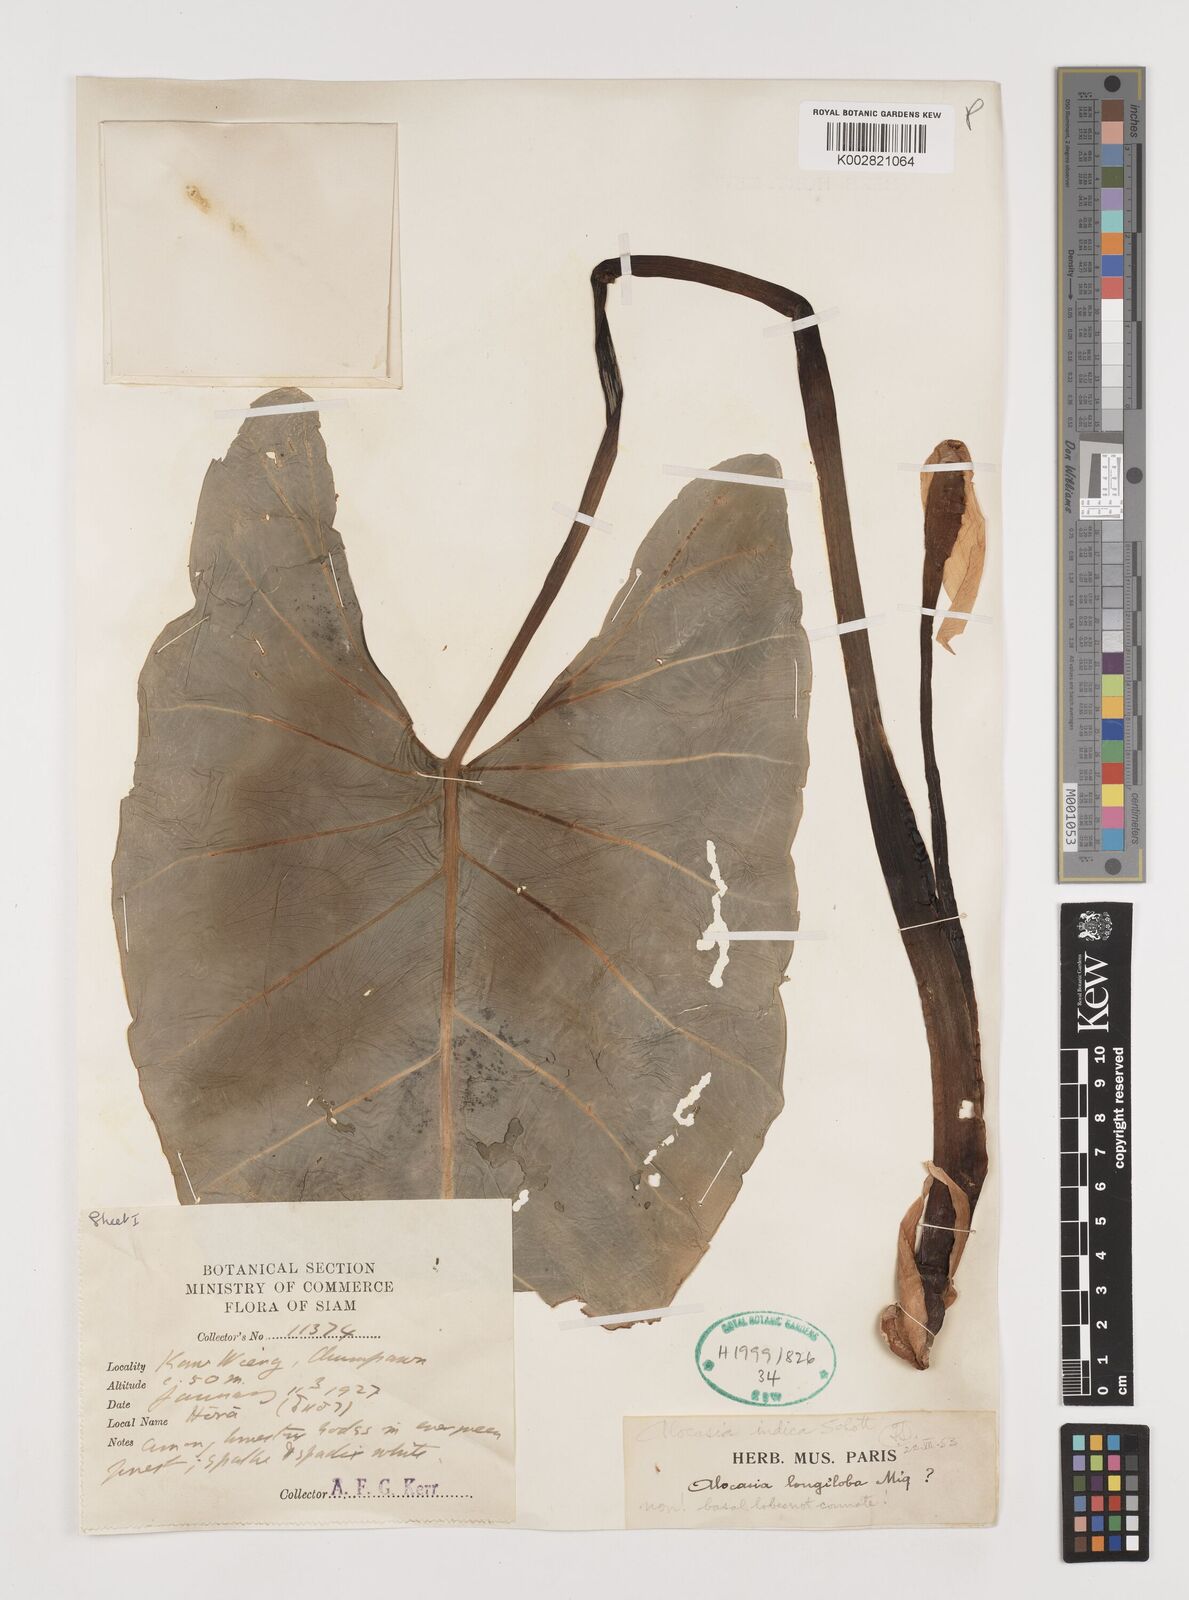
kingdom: Plantae
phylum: Tracheophyta
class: Liliopsida
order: Alismatales
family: Araceae
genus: Alocasia
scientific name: Alocasia macrorrhizos
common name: Giant taro
